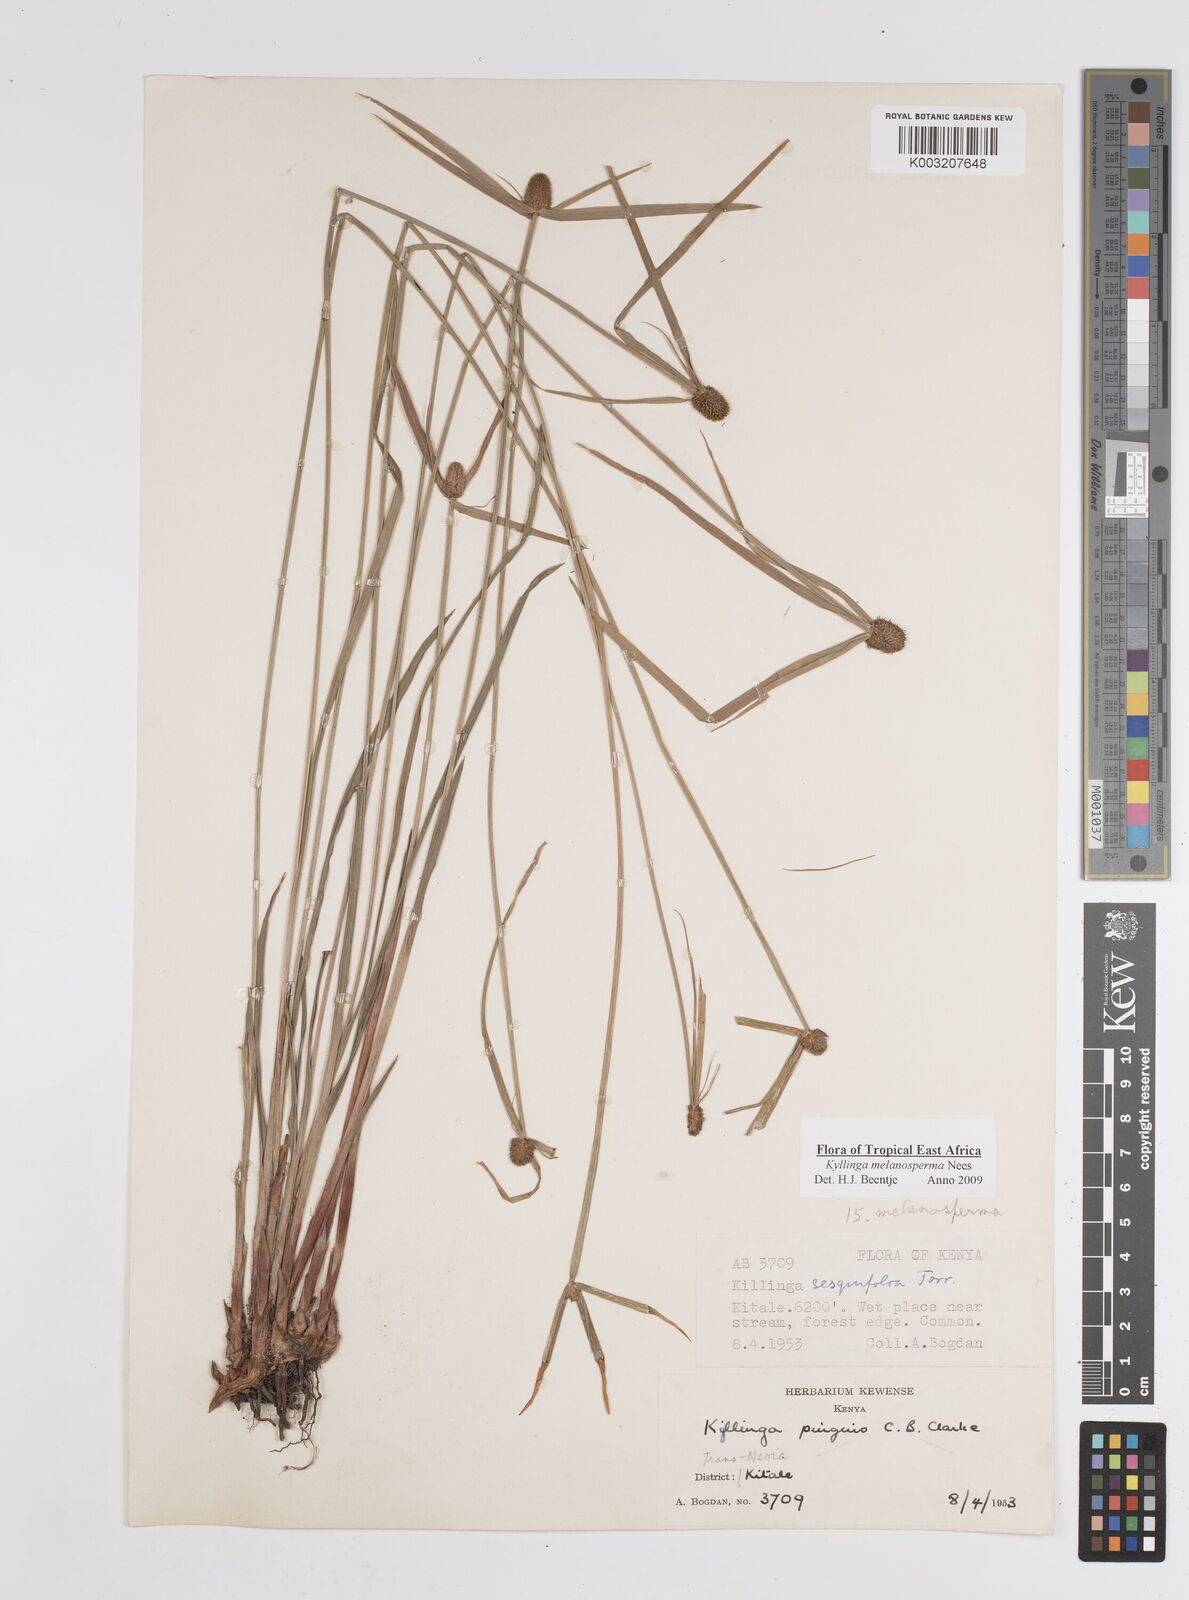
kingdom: Plantae
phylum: Tracheophyta
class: Liliopsida
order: Poales
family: Cyperaceae
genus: Cyperus
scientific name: Cyperus melanospermus
